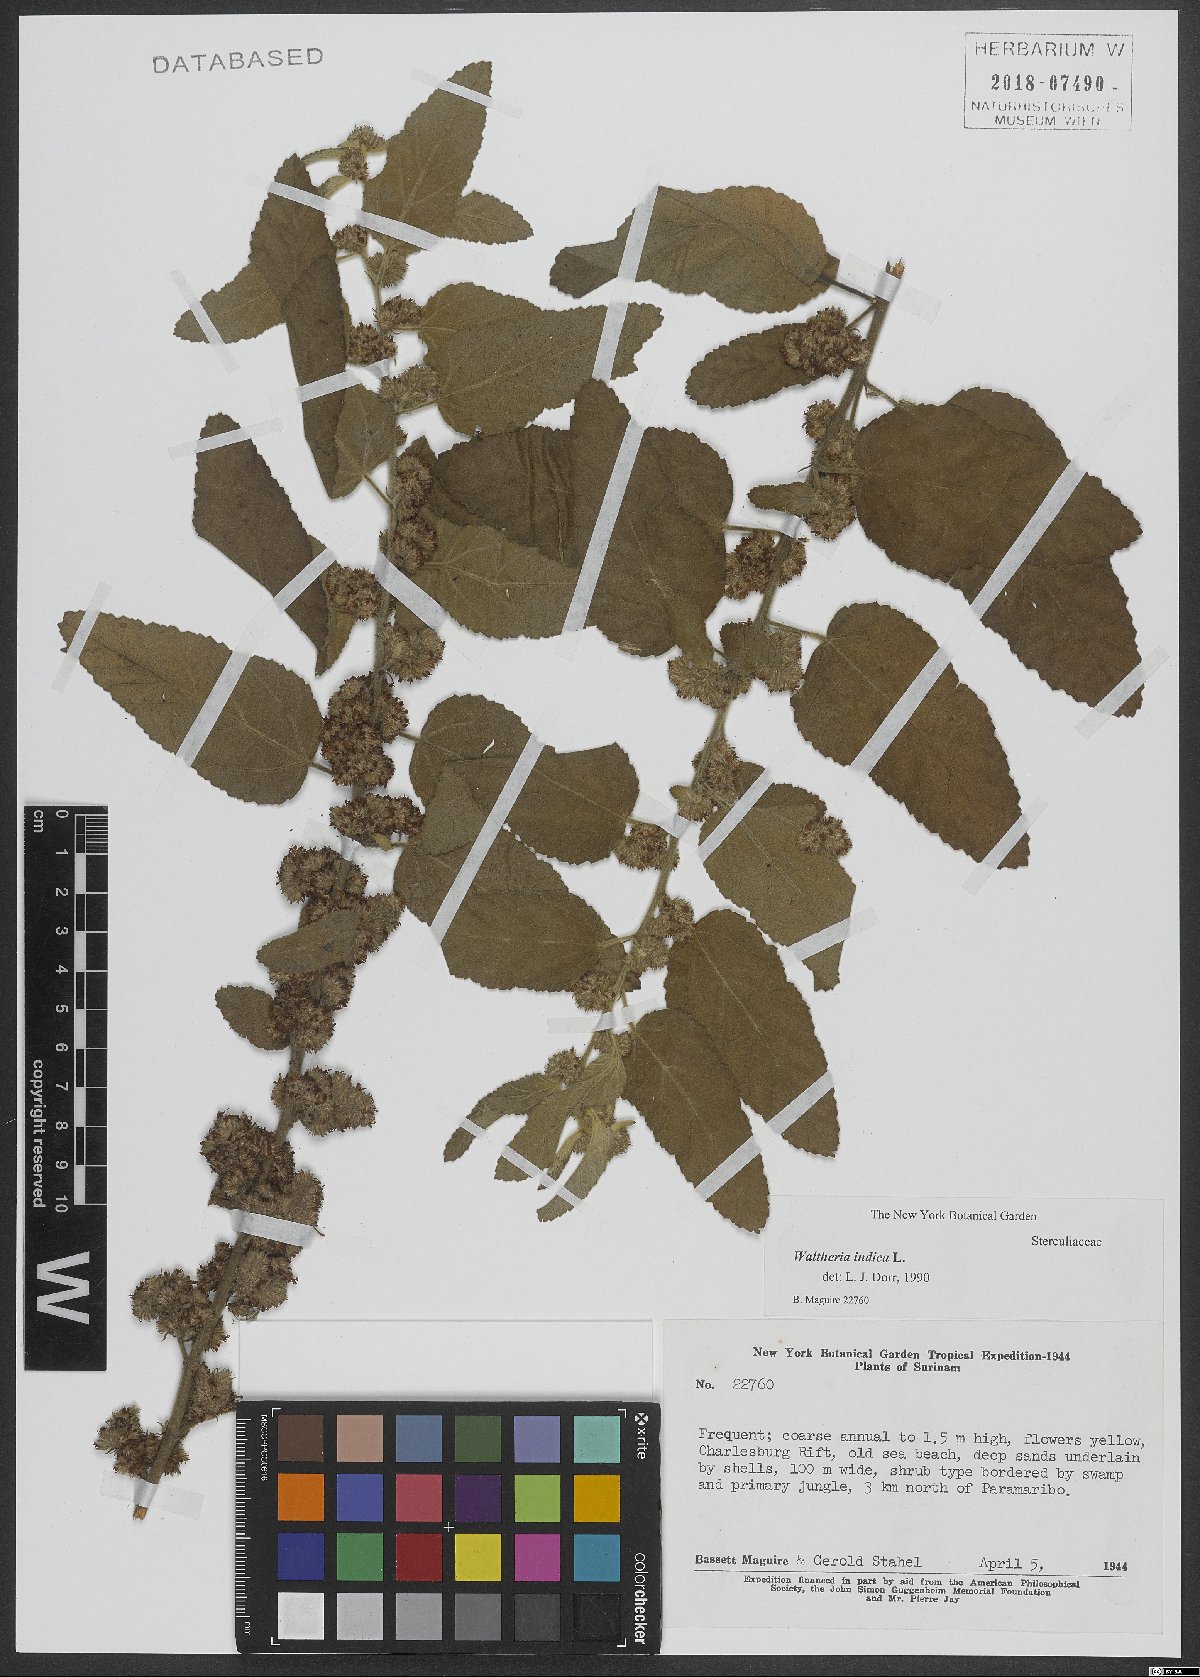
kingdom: Plantae
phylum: Tracheophyta
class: Magnoliopsida
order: Malvales
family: Malvaceae
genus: Waltheria
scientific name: Waltheria indica
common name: Leather-coat
